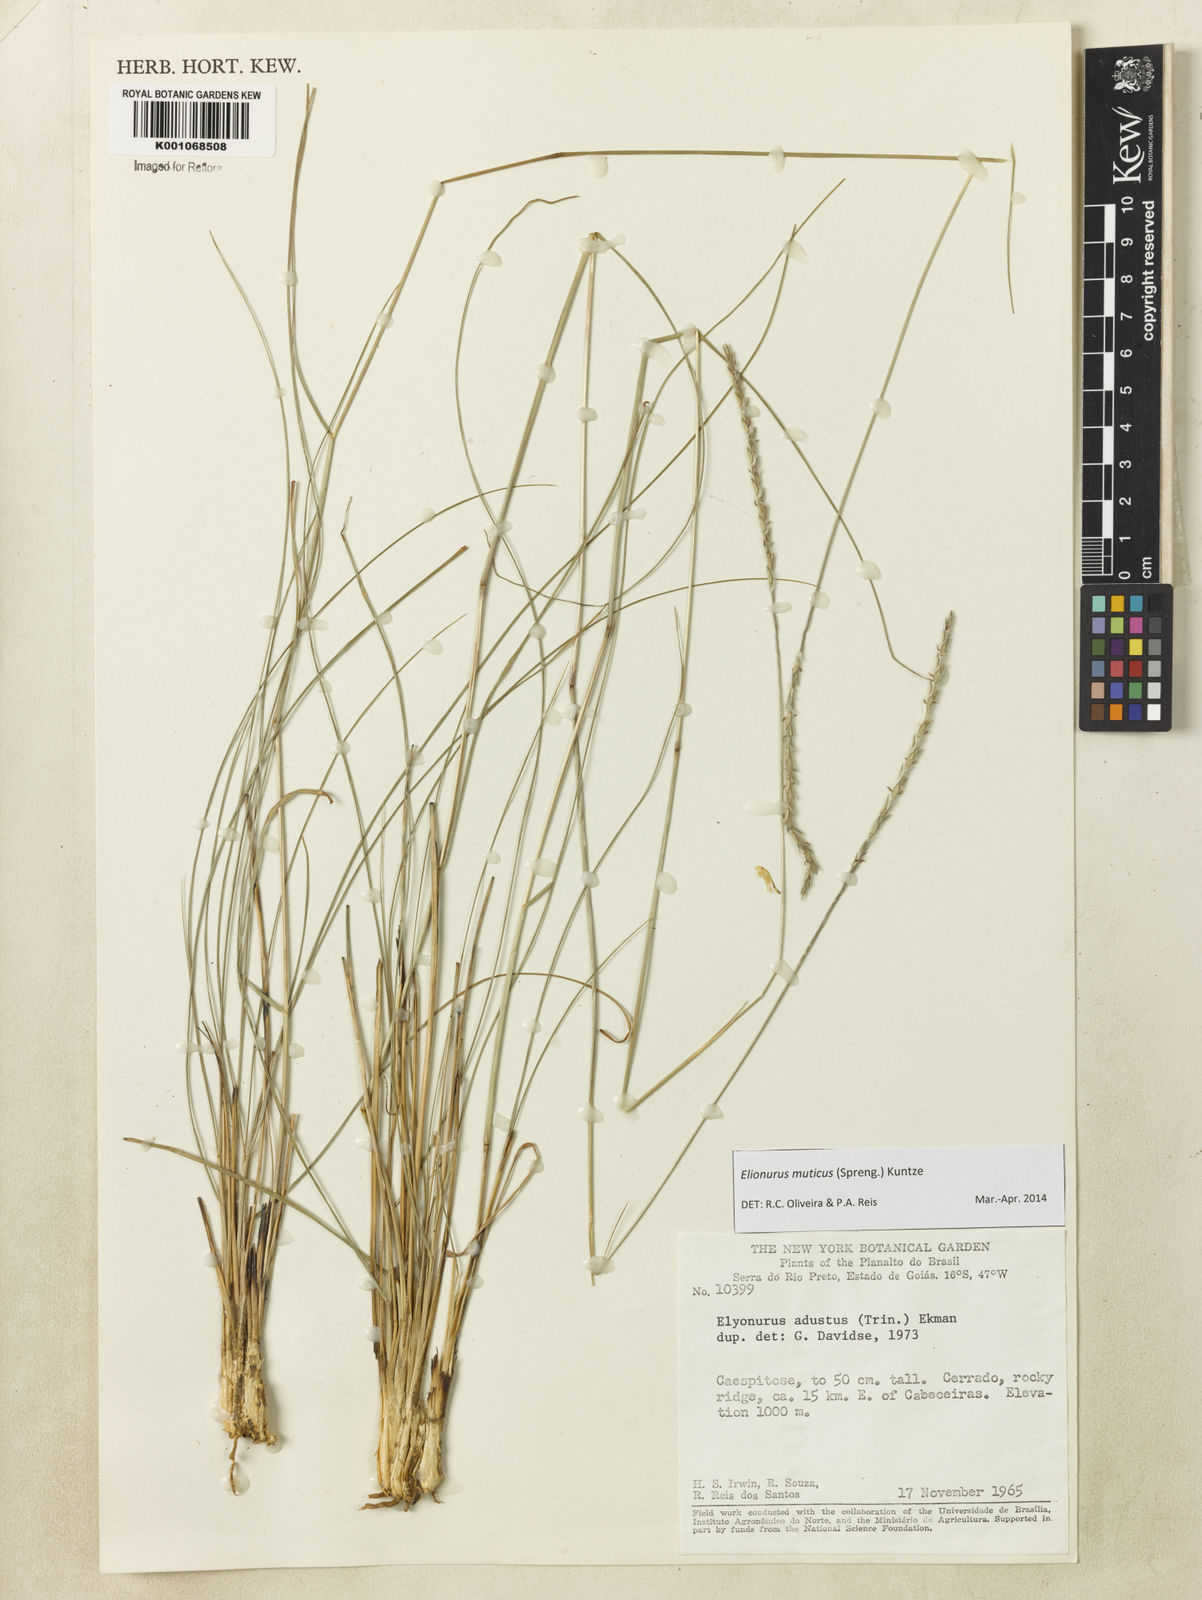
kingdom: Plantae
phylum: Tracheophyta
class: Liliopsida
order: Poales
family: Poaceae
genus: Elionurus
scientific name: Elionurus muticus
